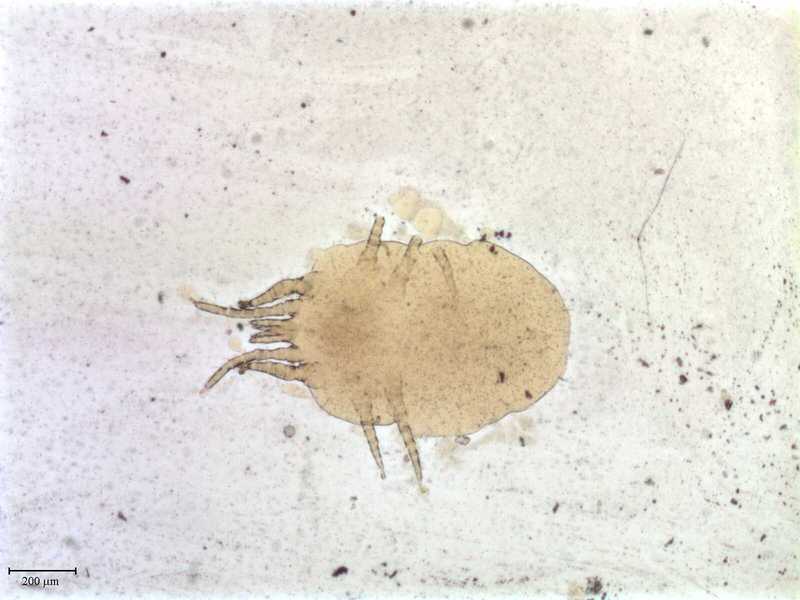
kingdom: Animalia
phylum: Arthropoda
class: Arachnida
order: Mesostigmata
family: Macronyssidae
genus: Chiroptonyssus
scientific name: Chiroptonyssus venezolanus
